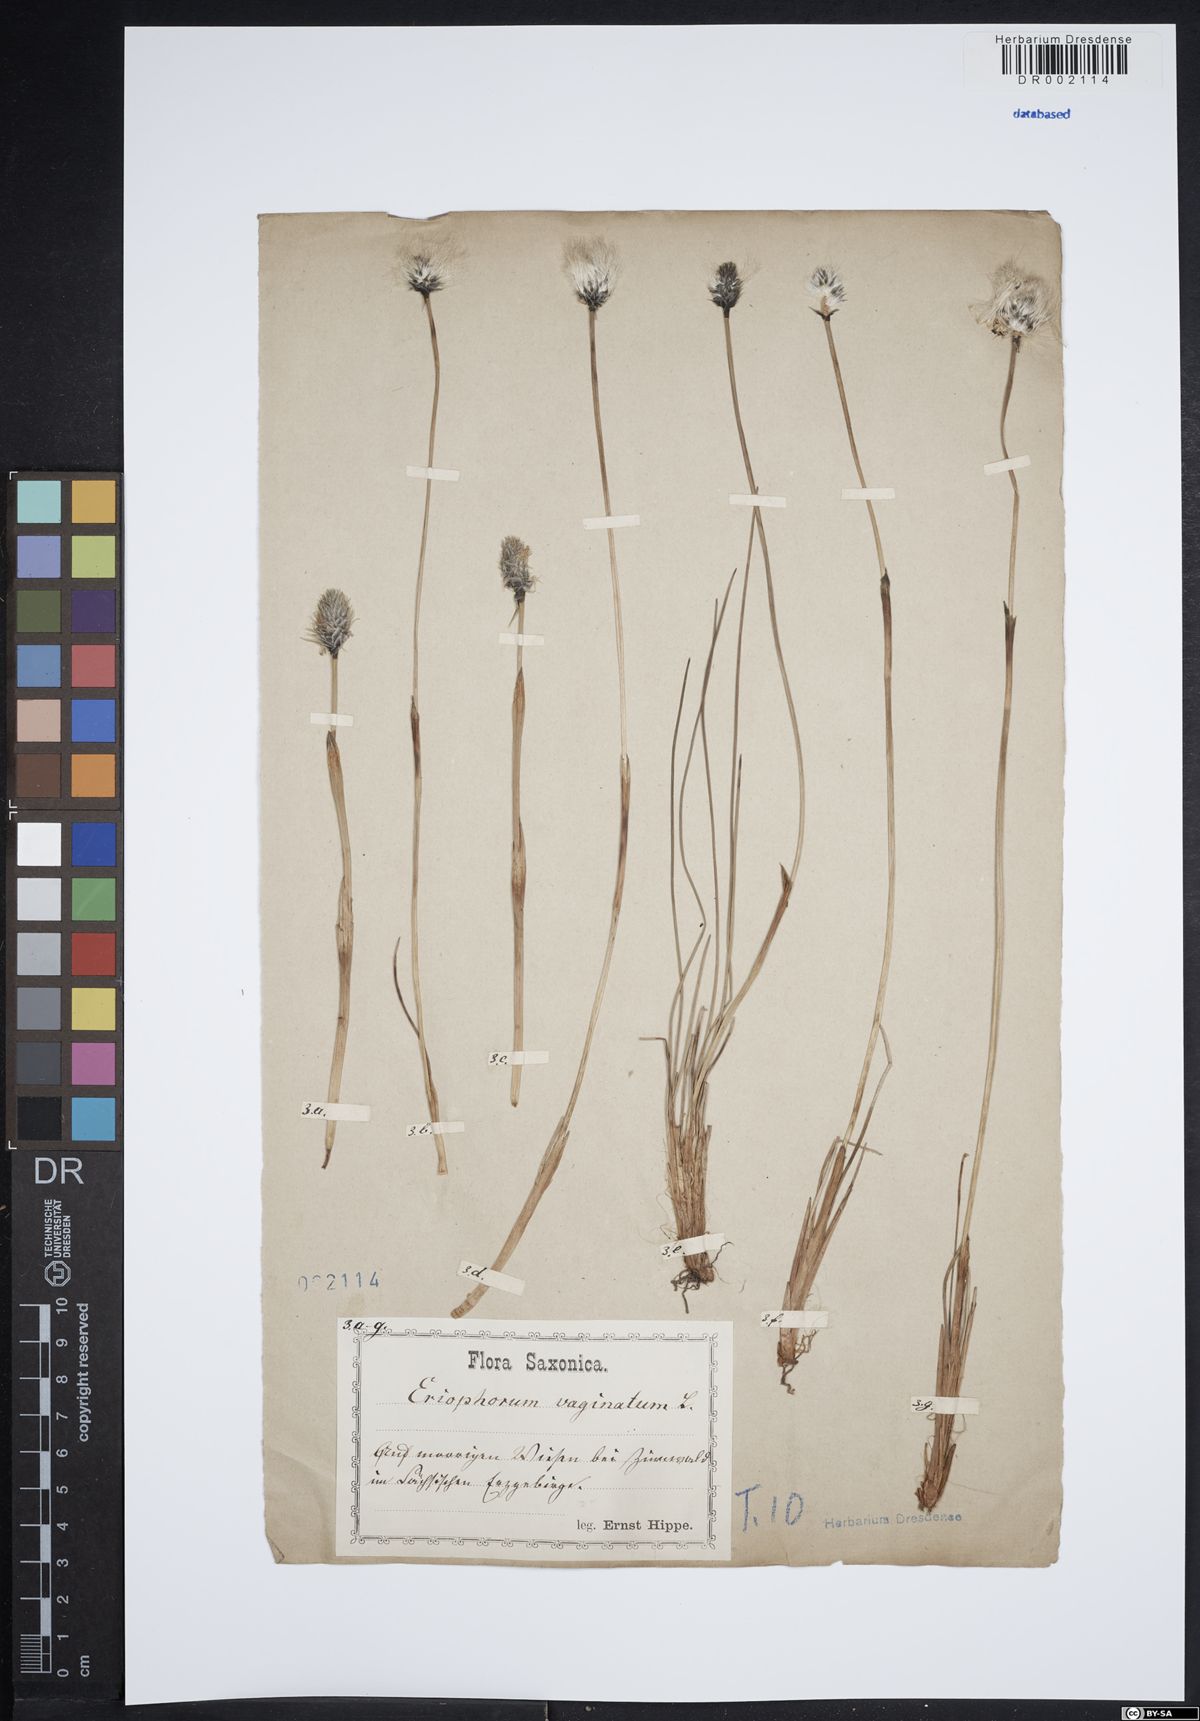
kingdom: Plantae
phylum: Tracheophyta
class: Liliopsida
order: Poales
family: Cyperaceae
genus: Eriophorum
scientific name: Eriophorum vaginatum
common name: Hare's-tail cottongrass
